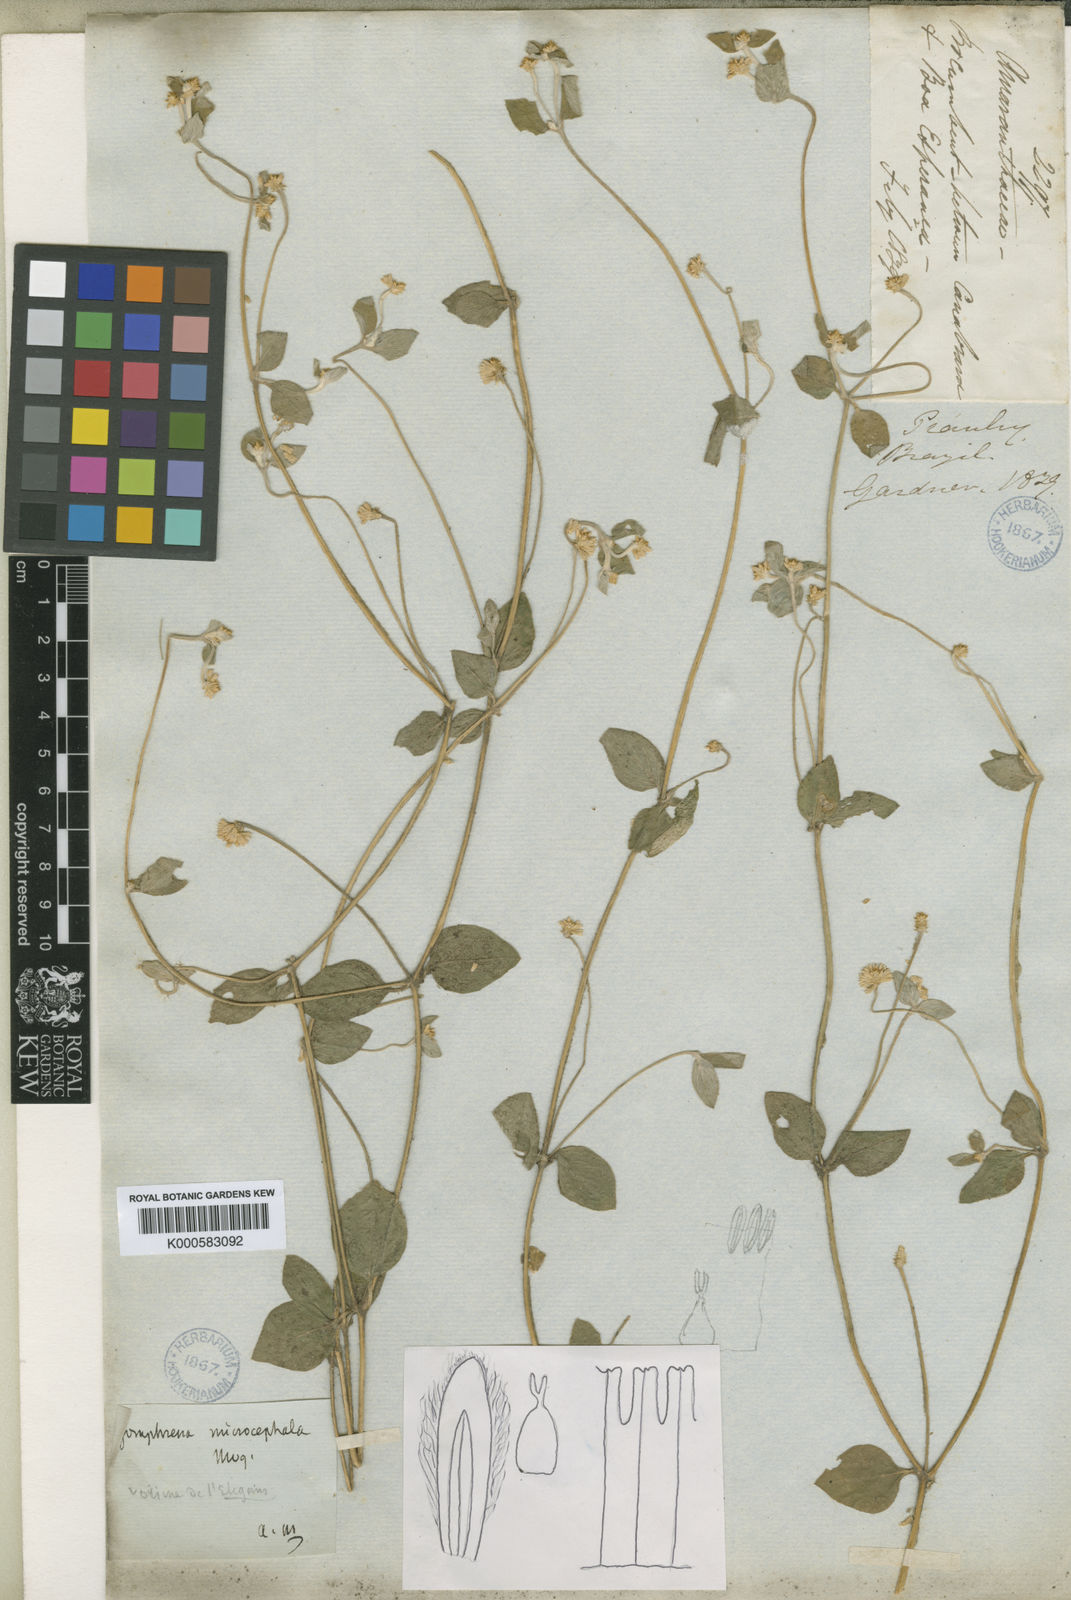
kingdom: Plantae
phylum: Tracheophyta
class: Magnoliopsida
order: Caryophyllales
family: Amaranthaceae
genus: Gomphrena
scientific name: Gomphrena serrata
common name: Arrasa con todo
